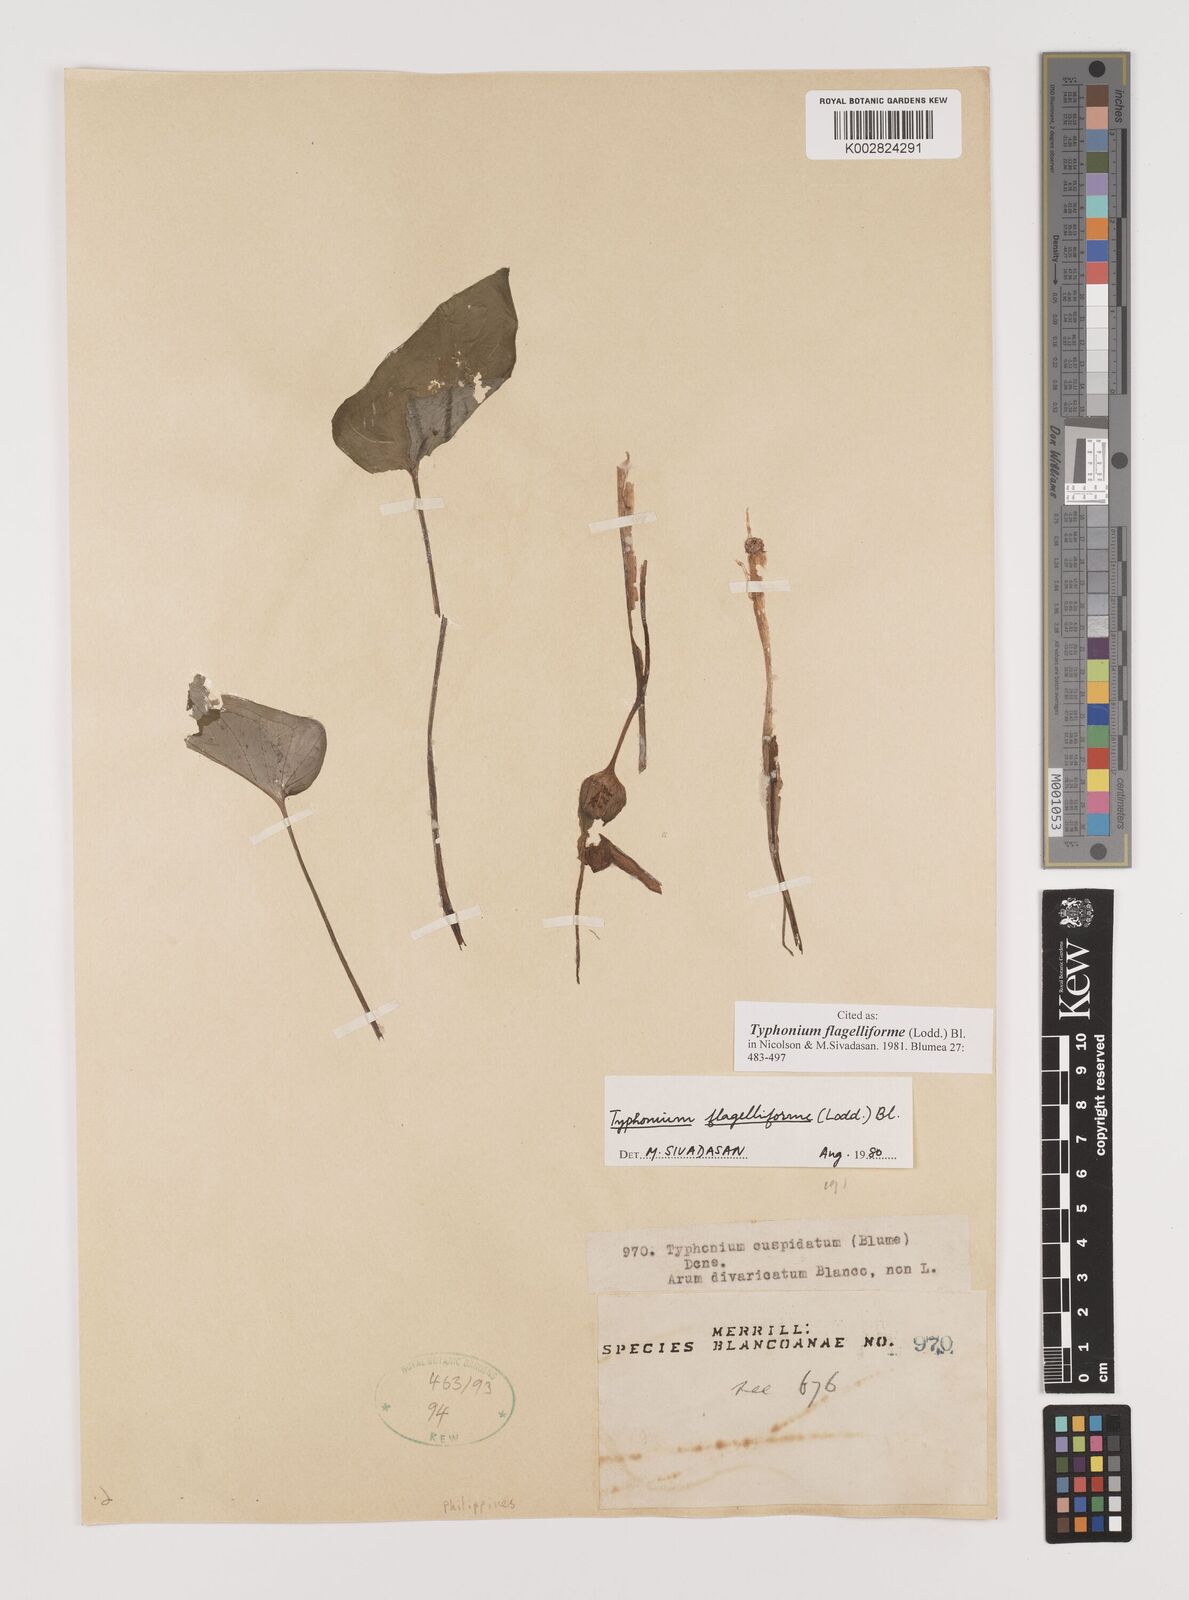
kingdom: Plantae
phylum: Tracheophyta
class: Liliopsida
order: Alismatales
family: Araceae
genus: Typhonium
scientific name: Typhonium flagelliforme
